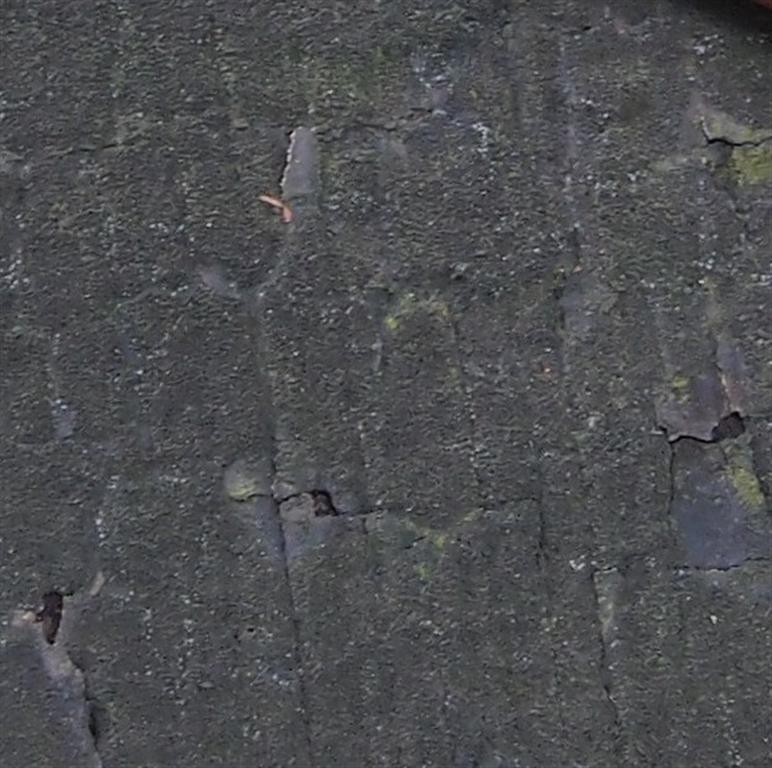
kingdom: Fungi
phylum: Ascomycota
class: Sordariomycetes
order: Xylariales
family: Diatrypaceae
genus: Eutypa
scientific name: Eutypa spinosa
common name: grov kulskorpe
